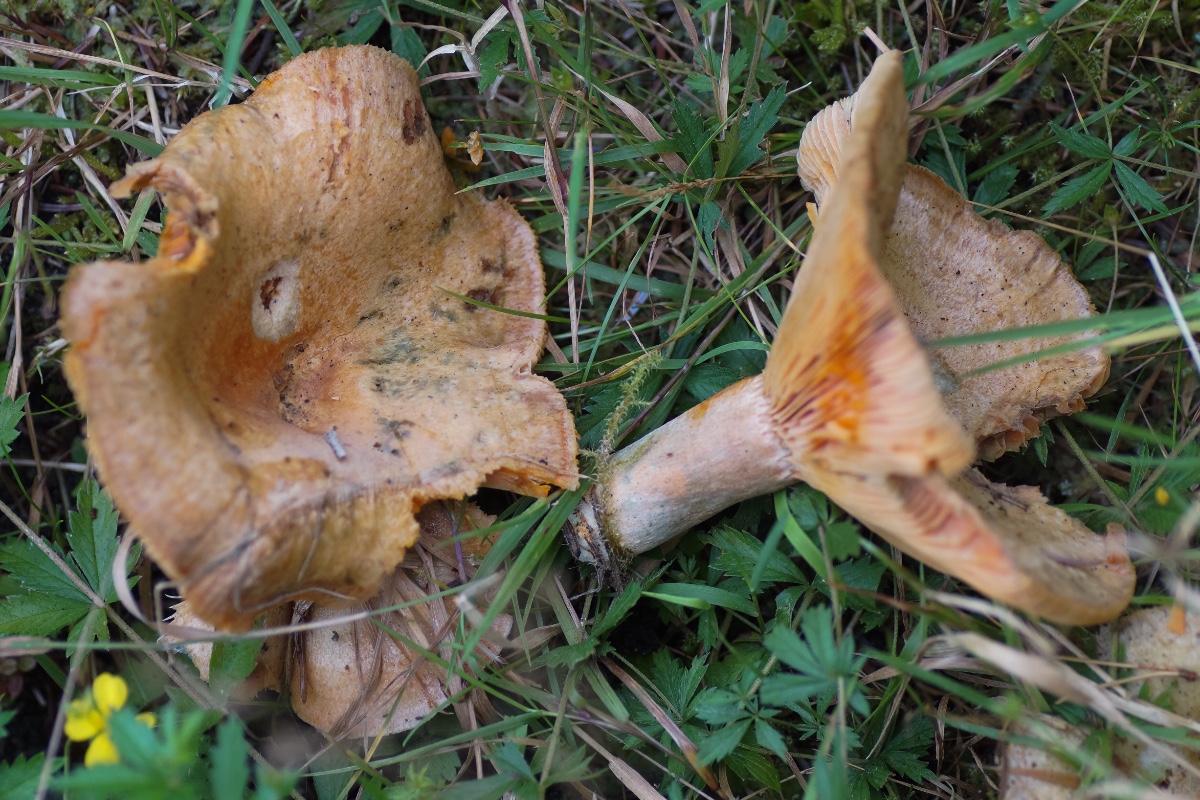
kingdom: Fungi
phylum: Basidiomycota
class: Agaricomycetes
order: Russulales
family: Russulaceae
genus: Lactarius
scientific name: Lactarius deterrimus
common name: gran-mælkehat
